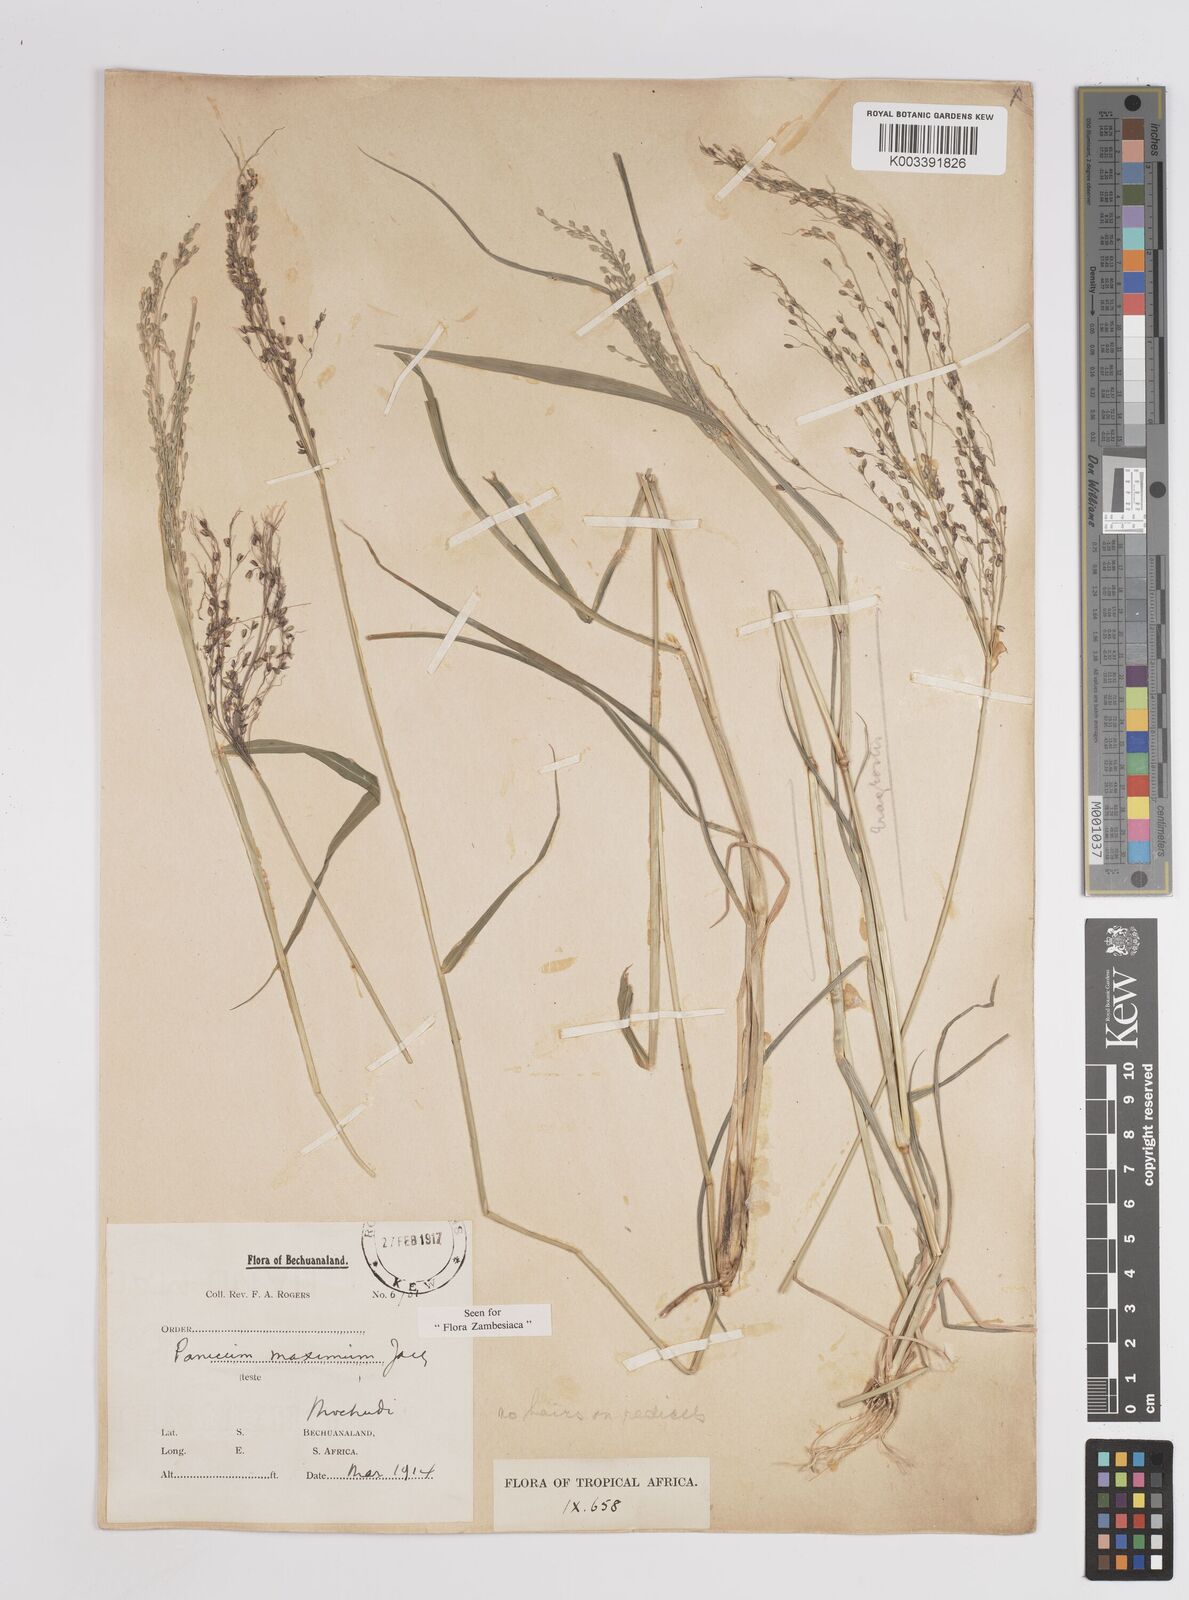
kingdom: Plantae
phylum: Tracheophyta
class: Liliopsida
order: Poales
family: Poaceae
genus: Megathyrsus
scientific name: Megathyrsus maximus
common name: Guineagrass
